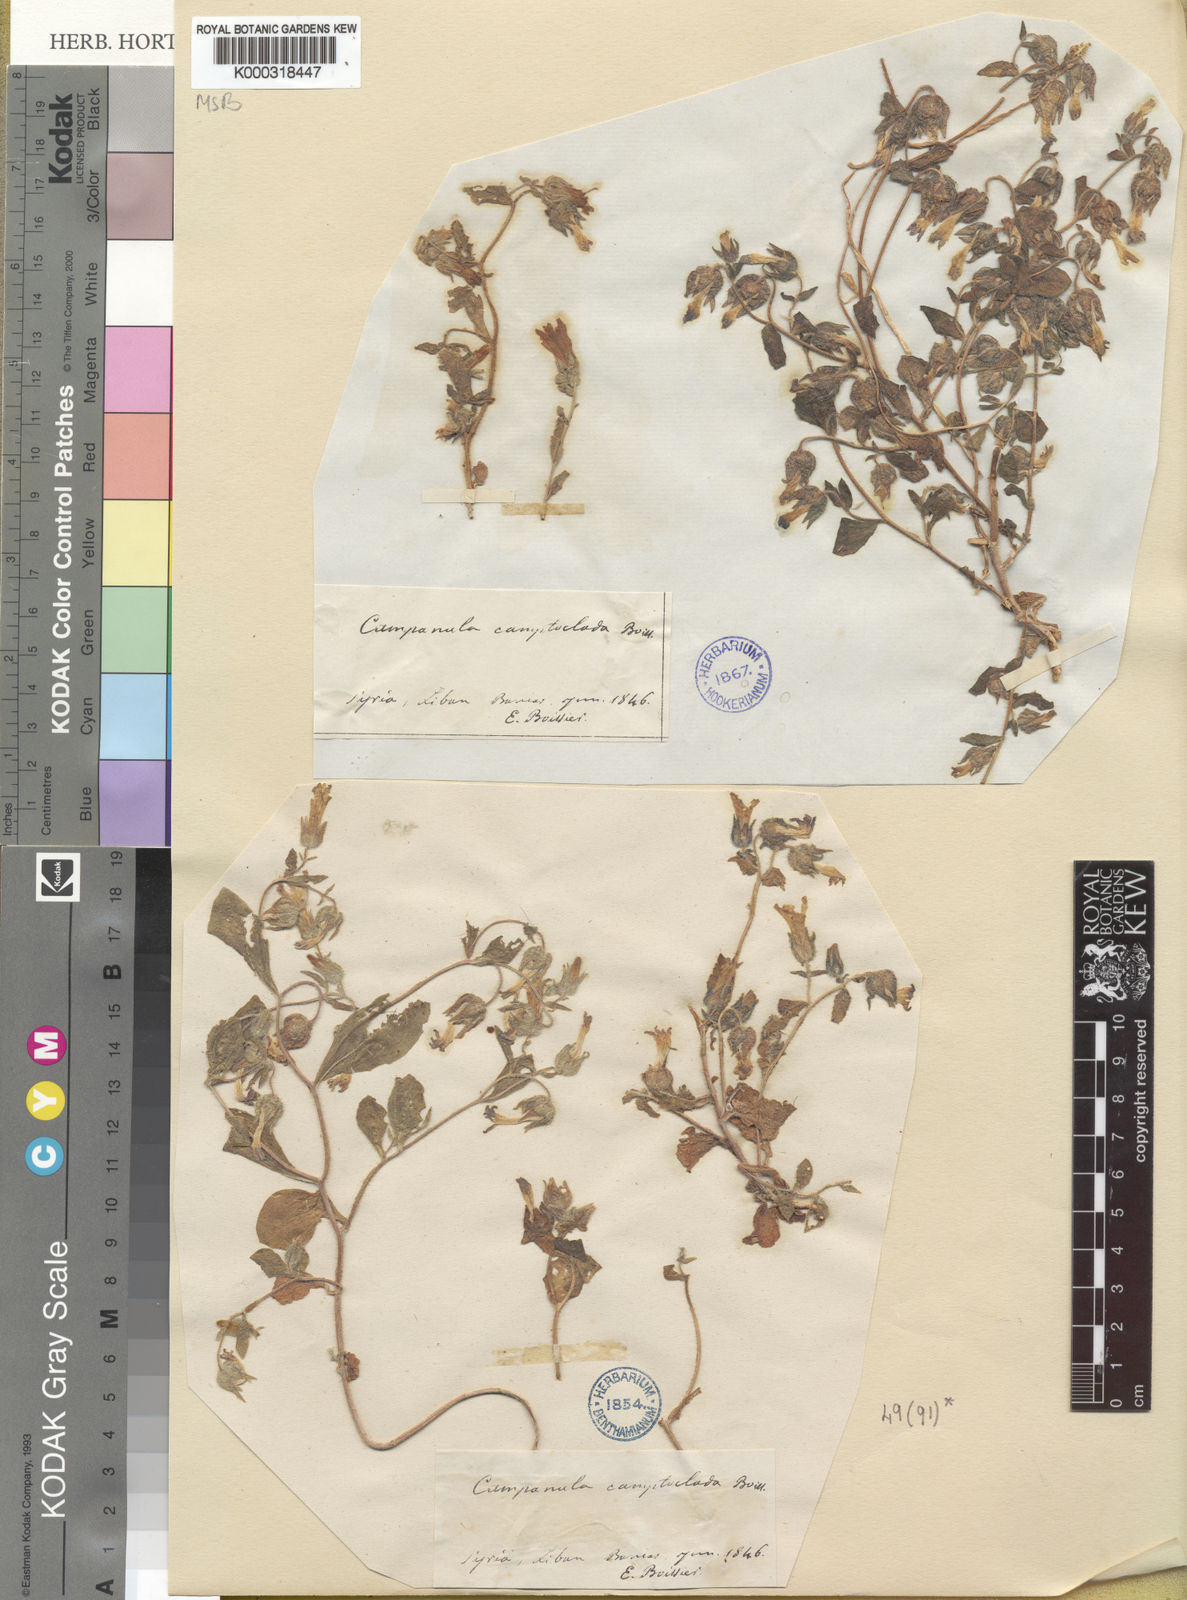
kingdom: Plantae
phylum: Tracheophyta
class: Magnoliopsida
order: Asterales
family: Campanulaceae
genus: Campanula
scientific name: Campanula camptoclada
